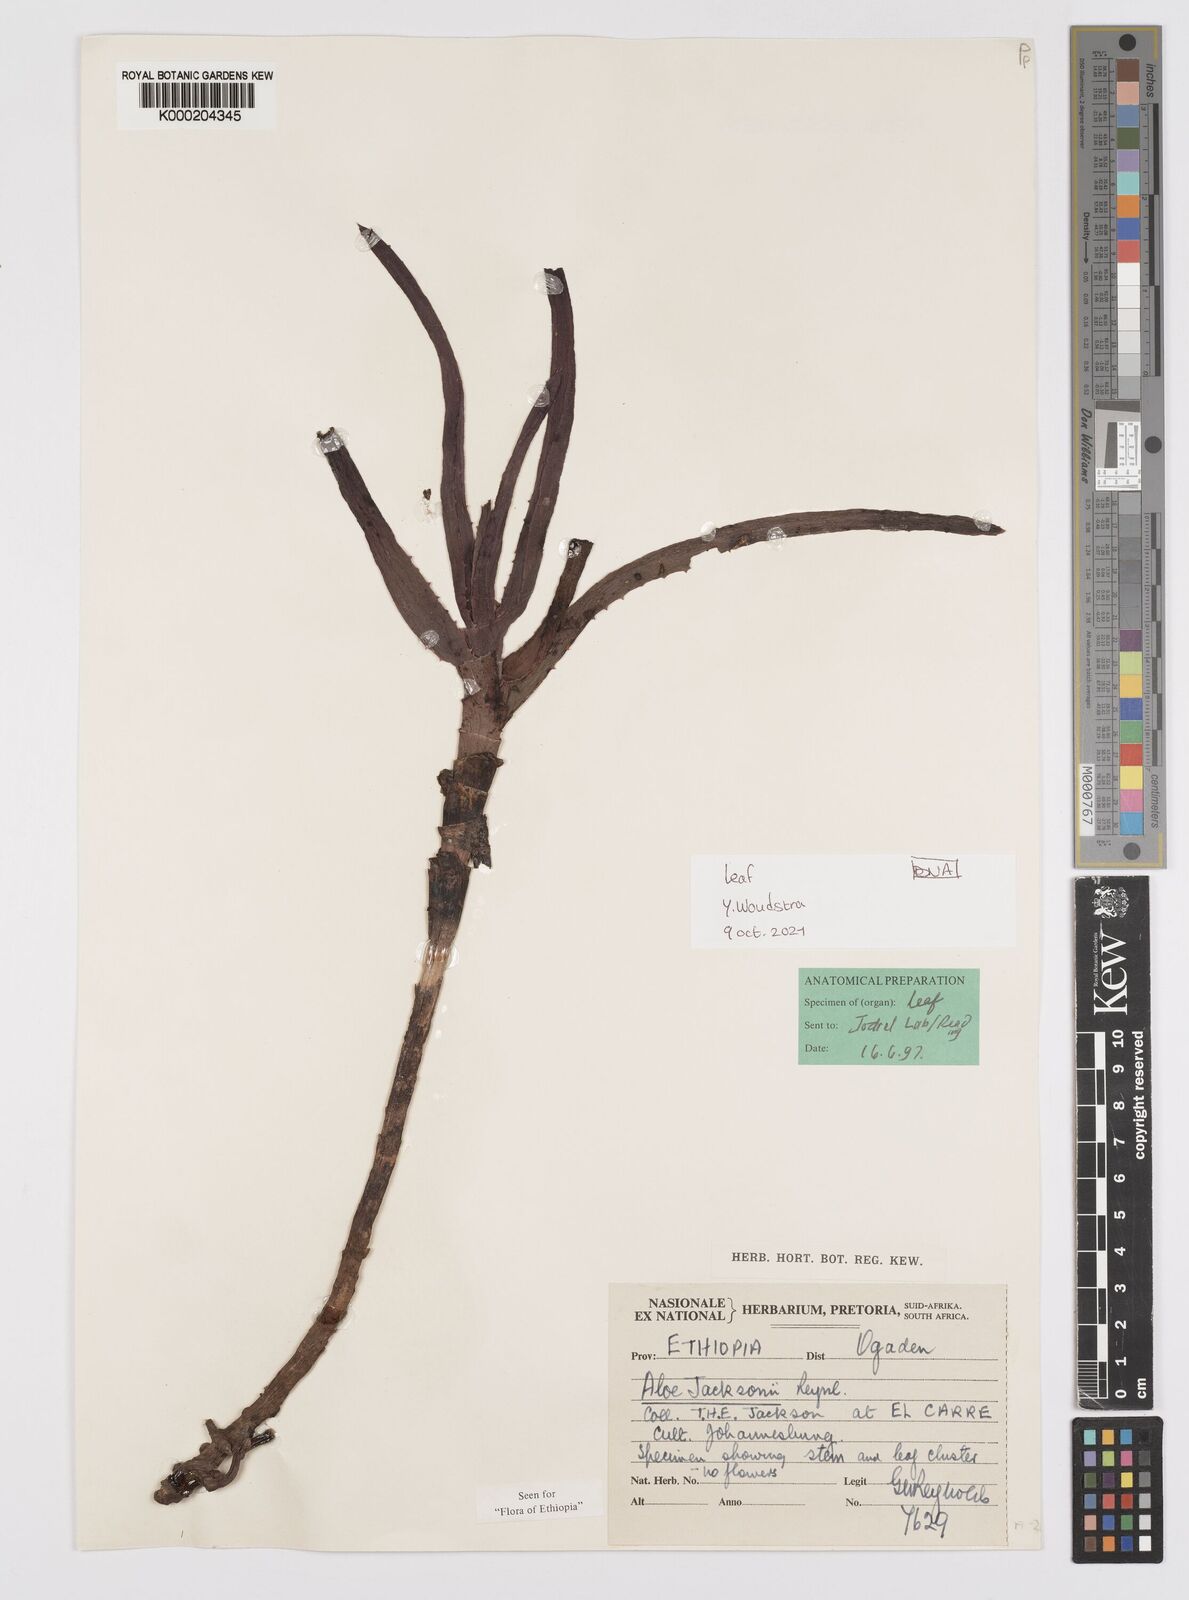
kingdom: Plantae
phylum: Tracheophyta
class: Liliopsida
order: Asparagales
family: Asphodelaceae
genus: Aloe
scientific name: Aloe jacksonii
